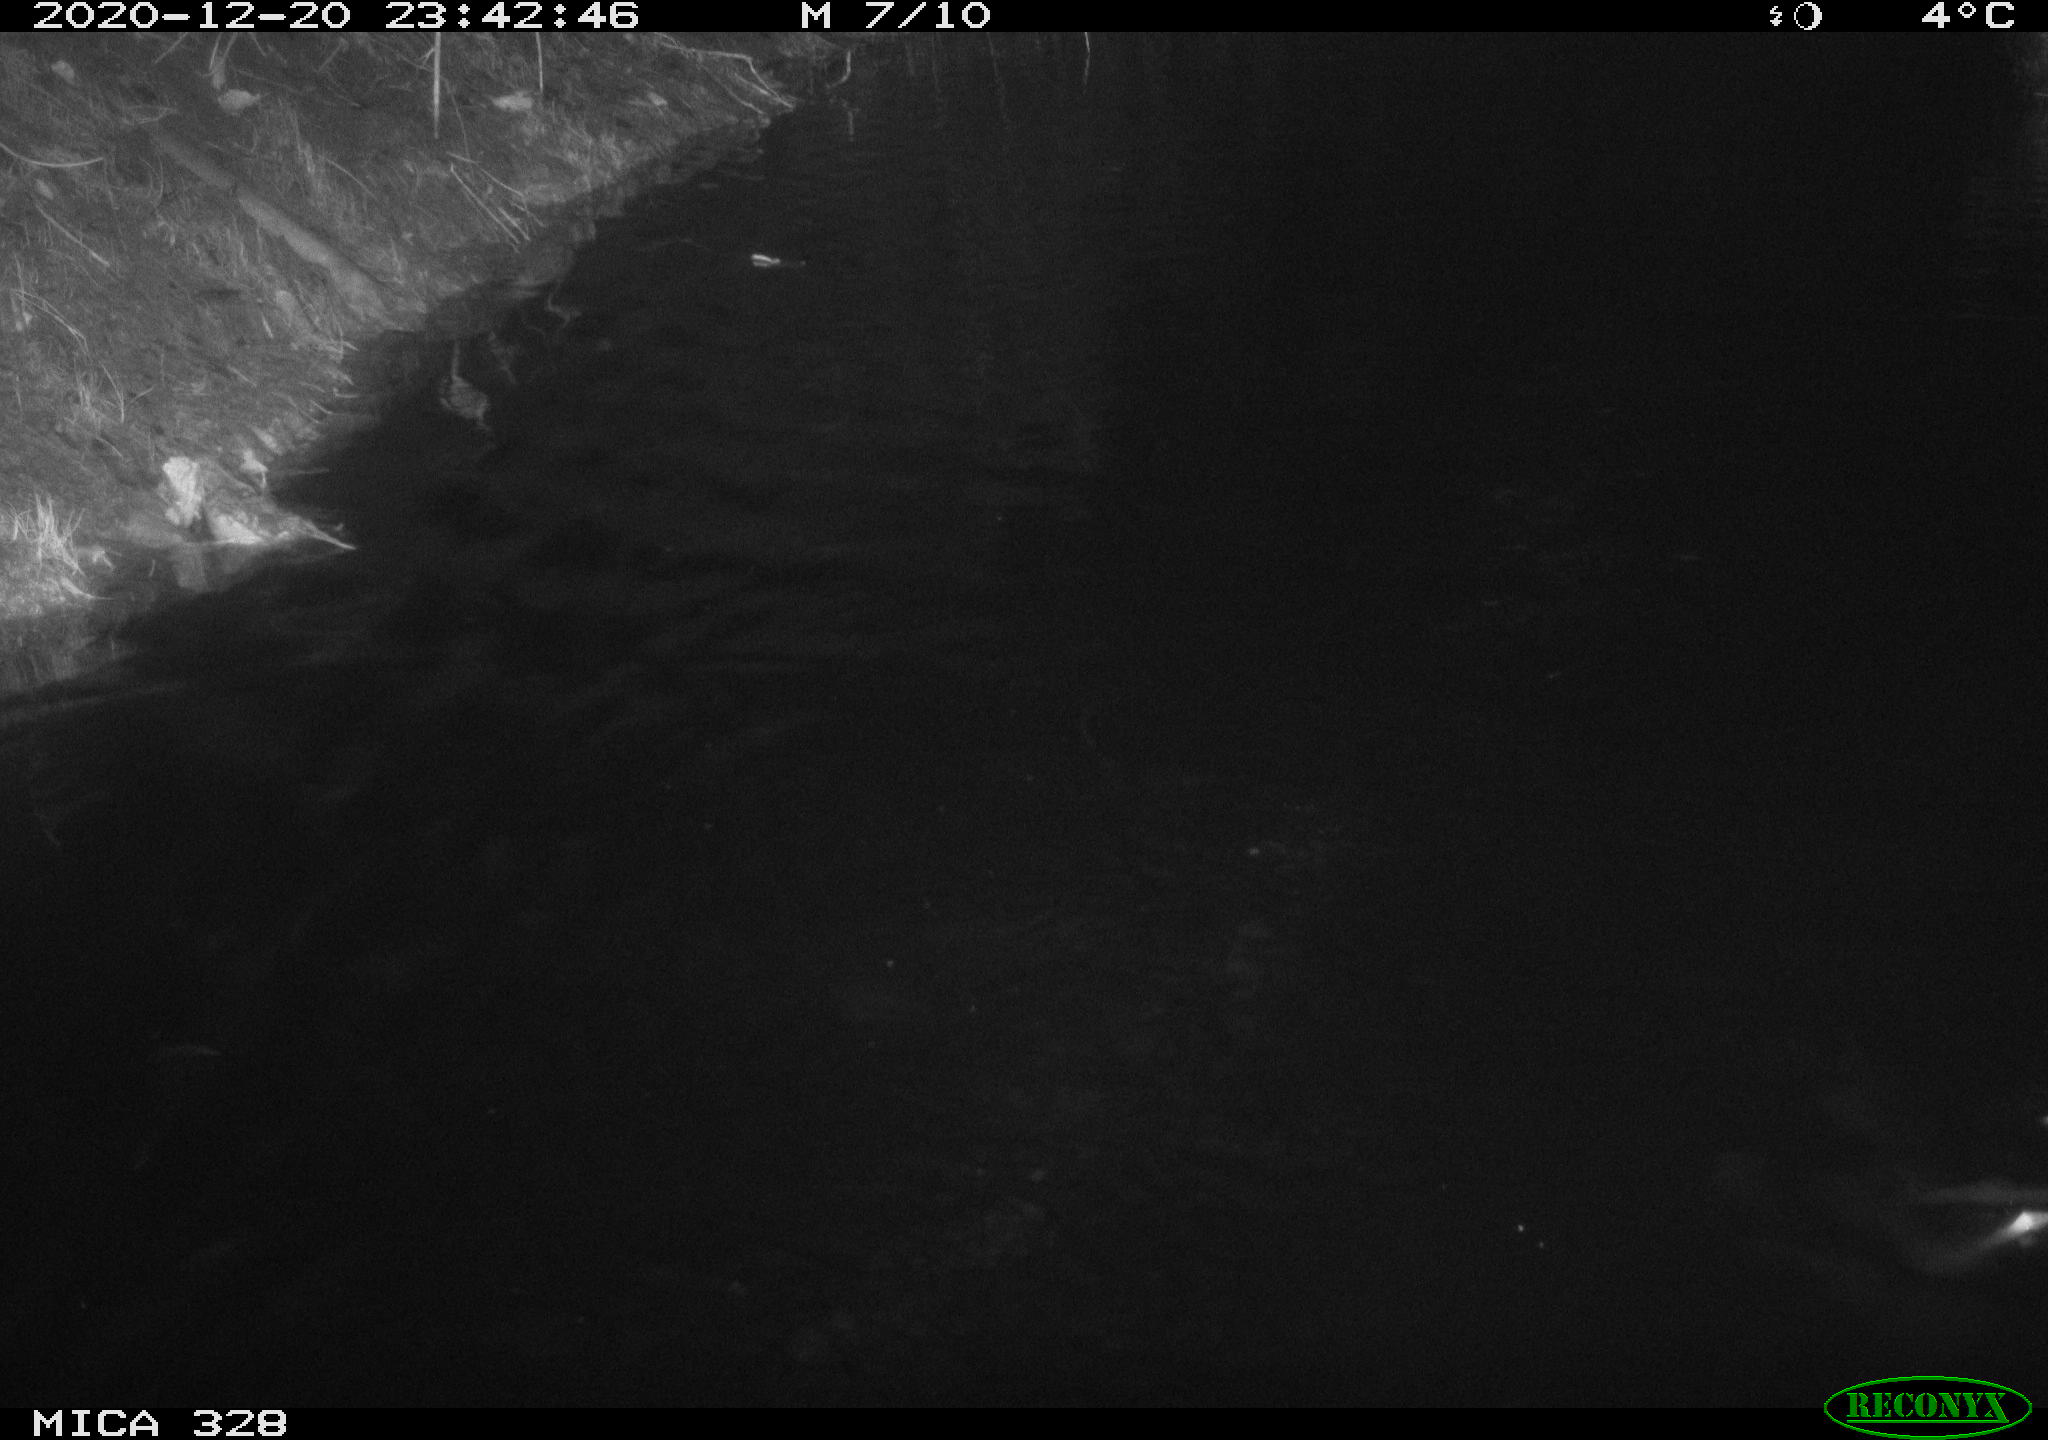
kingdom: Animalia
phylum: Chordata
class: Mammalia
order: Rodentia
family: Myocastoridae
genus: Myocastor
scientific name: Myocastor coypus
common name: Coypu
